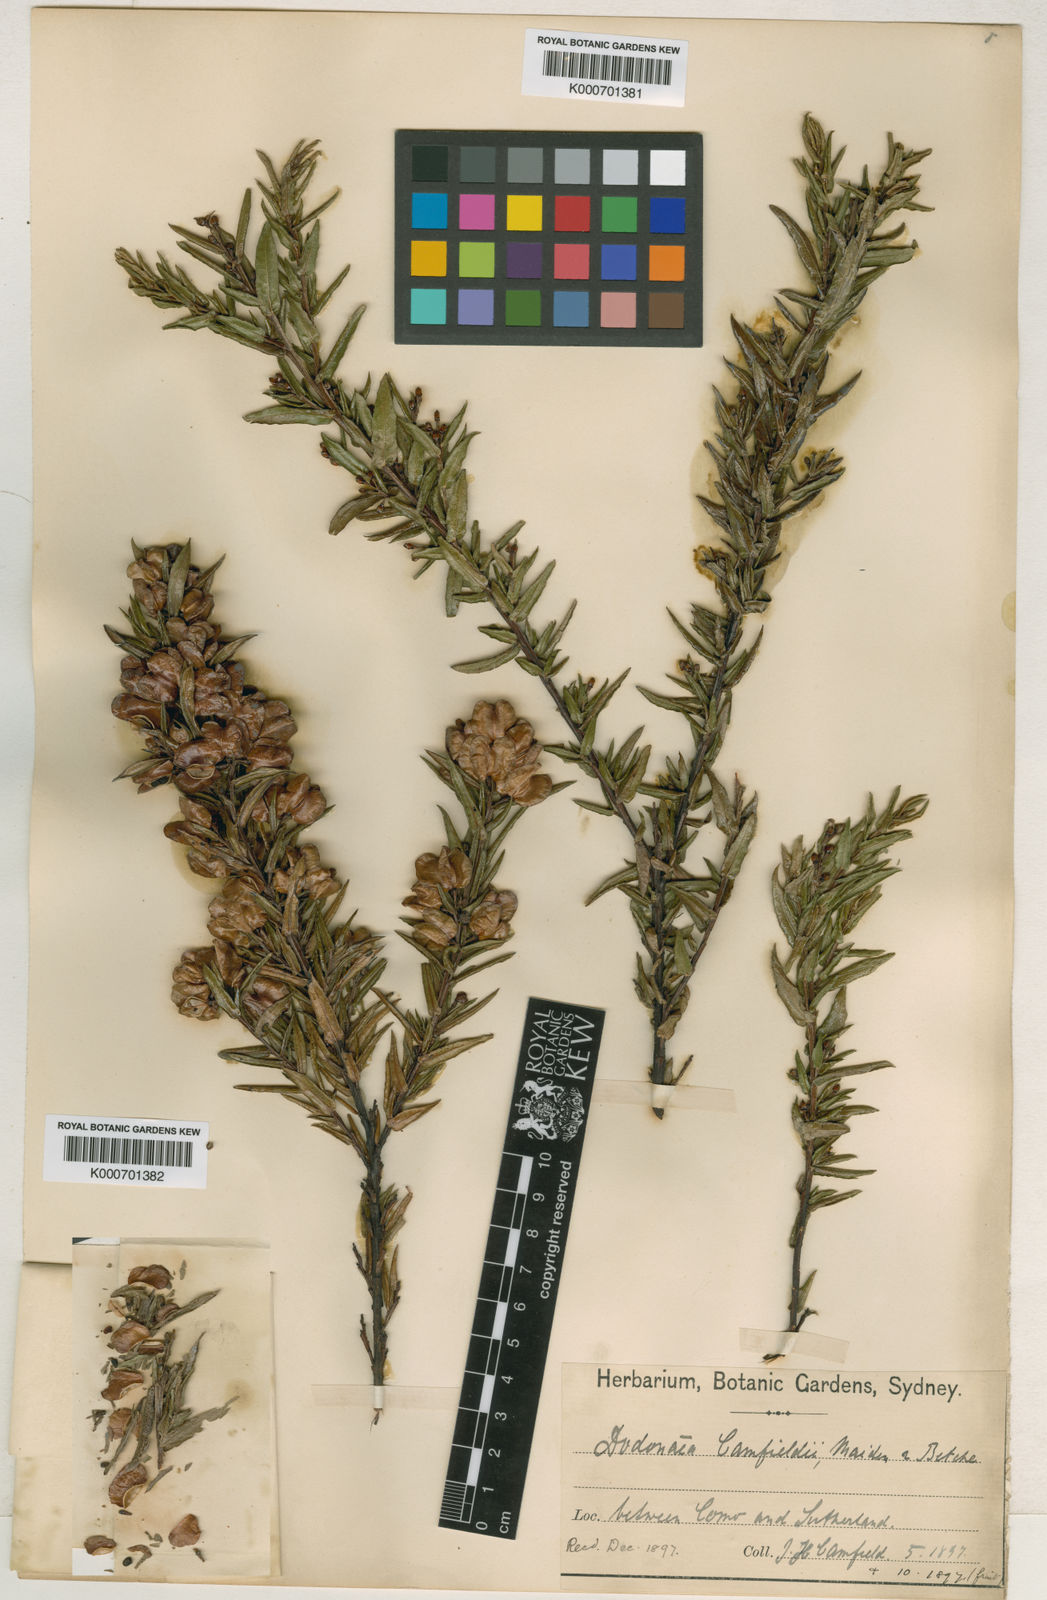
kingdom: Plantae
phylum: Tracheophyta
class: Magnoliopsida
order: Sapindales
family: Sapindaceae
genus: Dodonaea
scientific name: Dodonaea camfieldii
